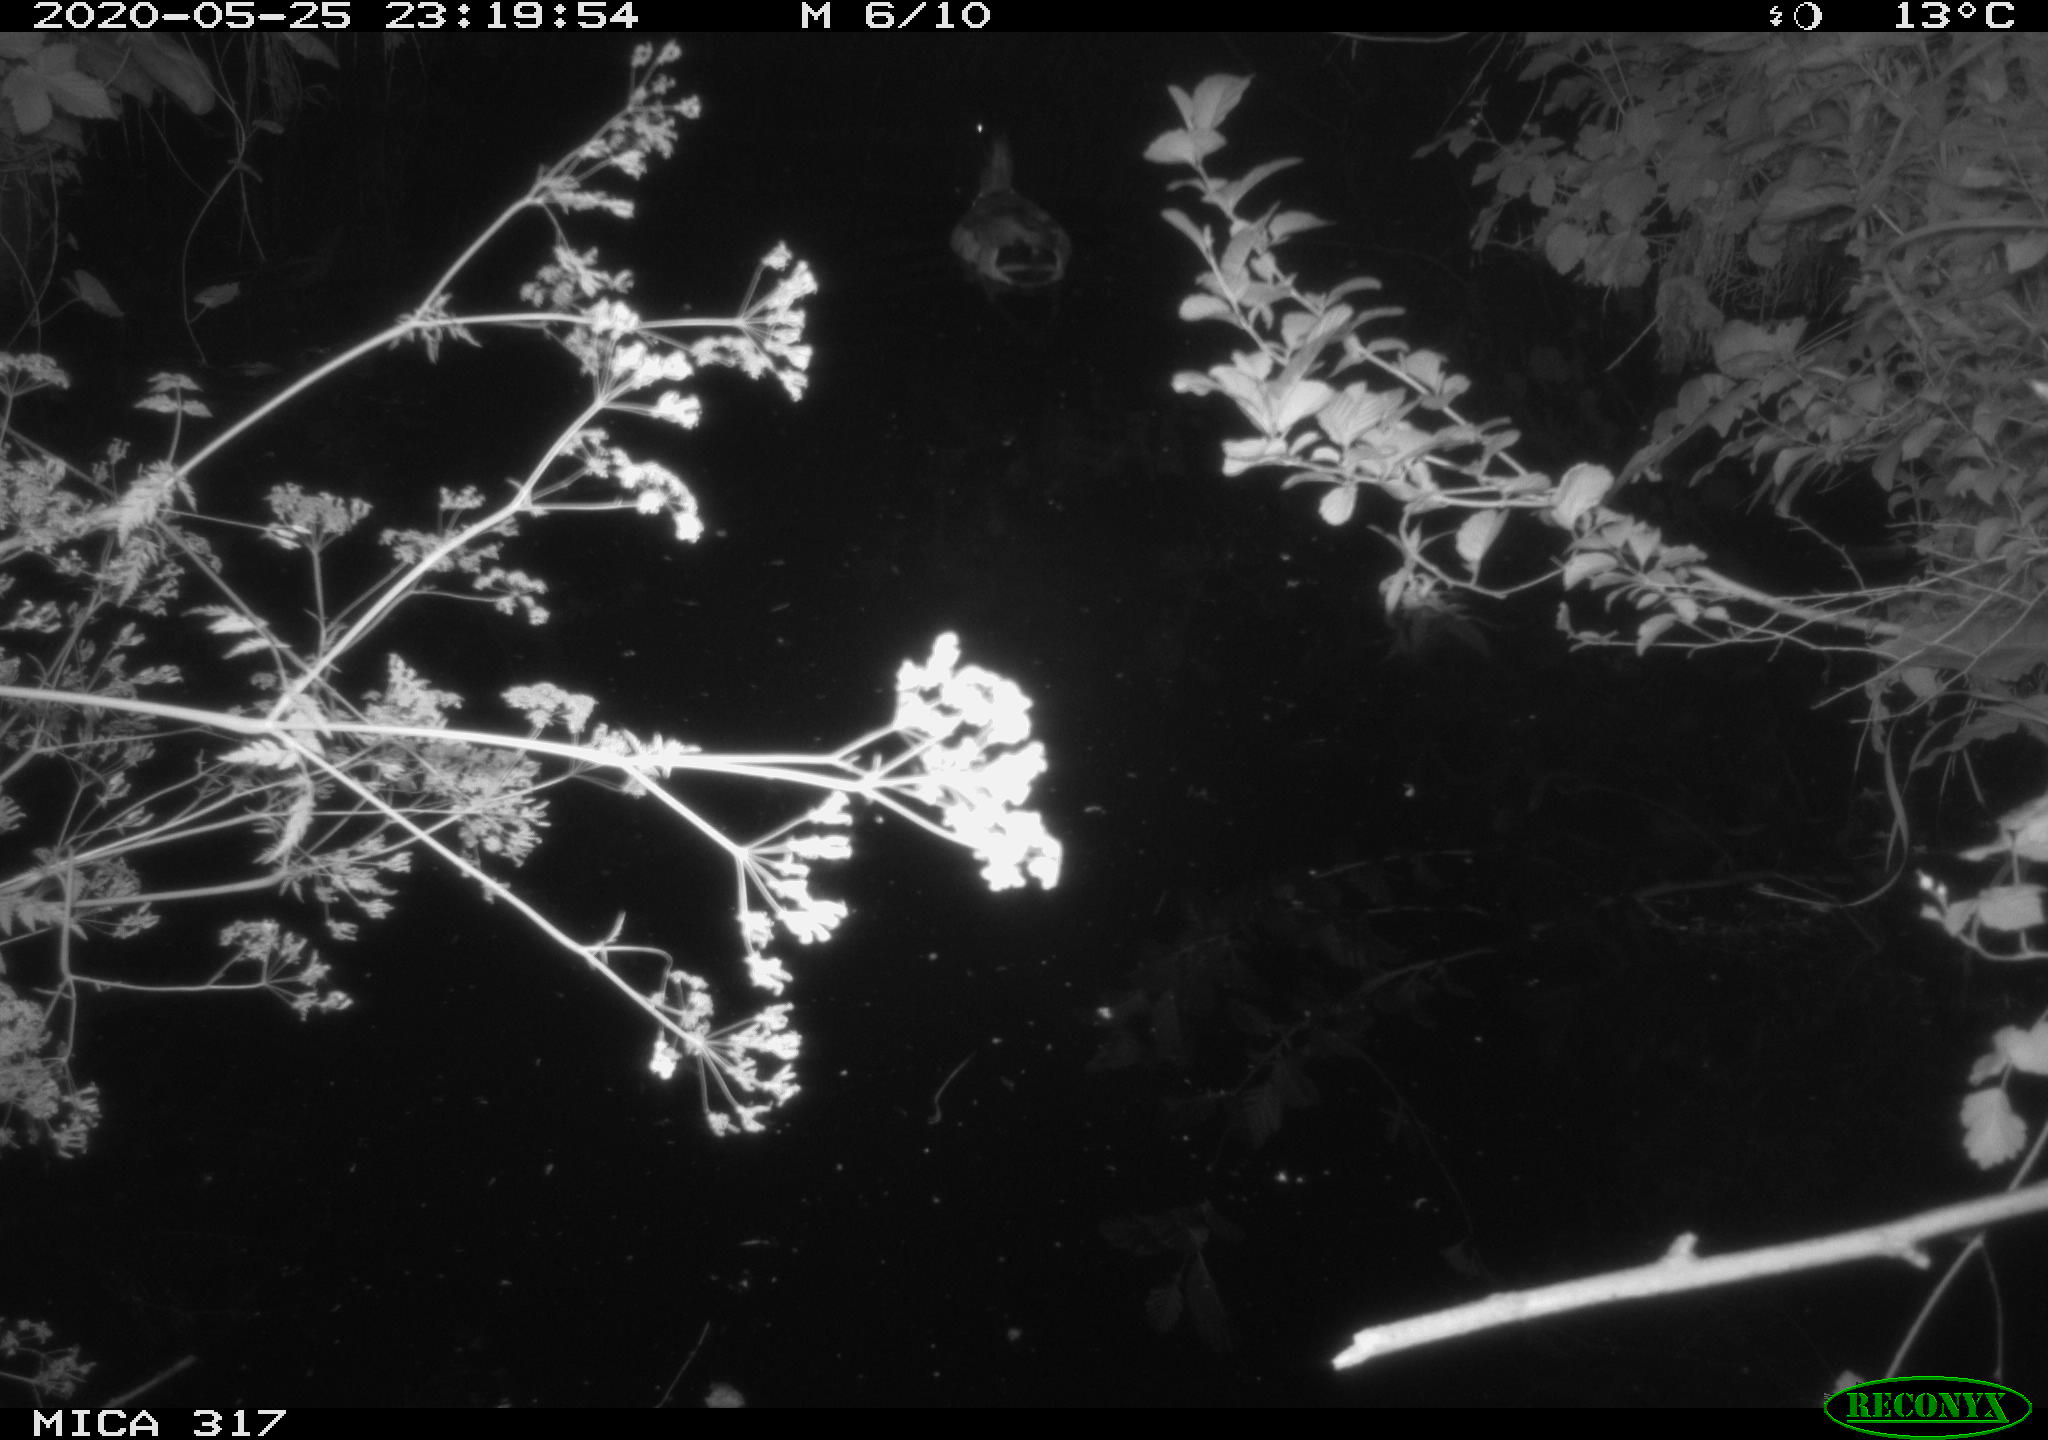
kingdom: Animalia
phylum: Chordata
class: Aves
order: Anseriformes
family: Anatidae
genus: Anas
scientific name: Anas platyrhynchos
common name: Mallard
